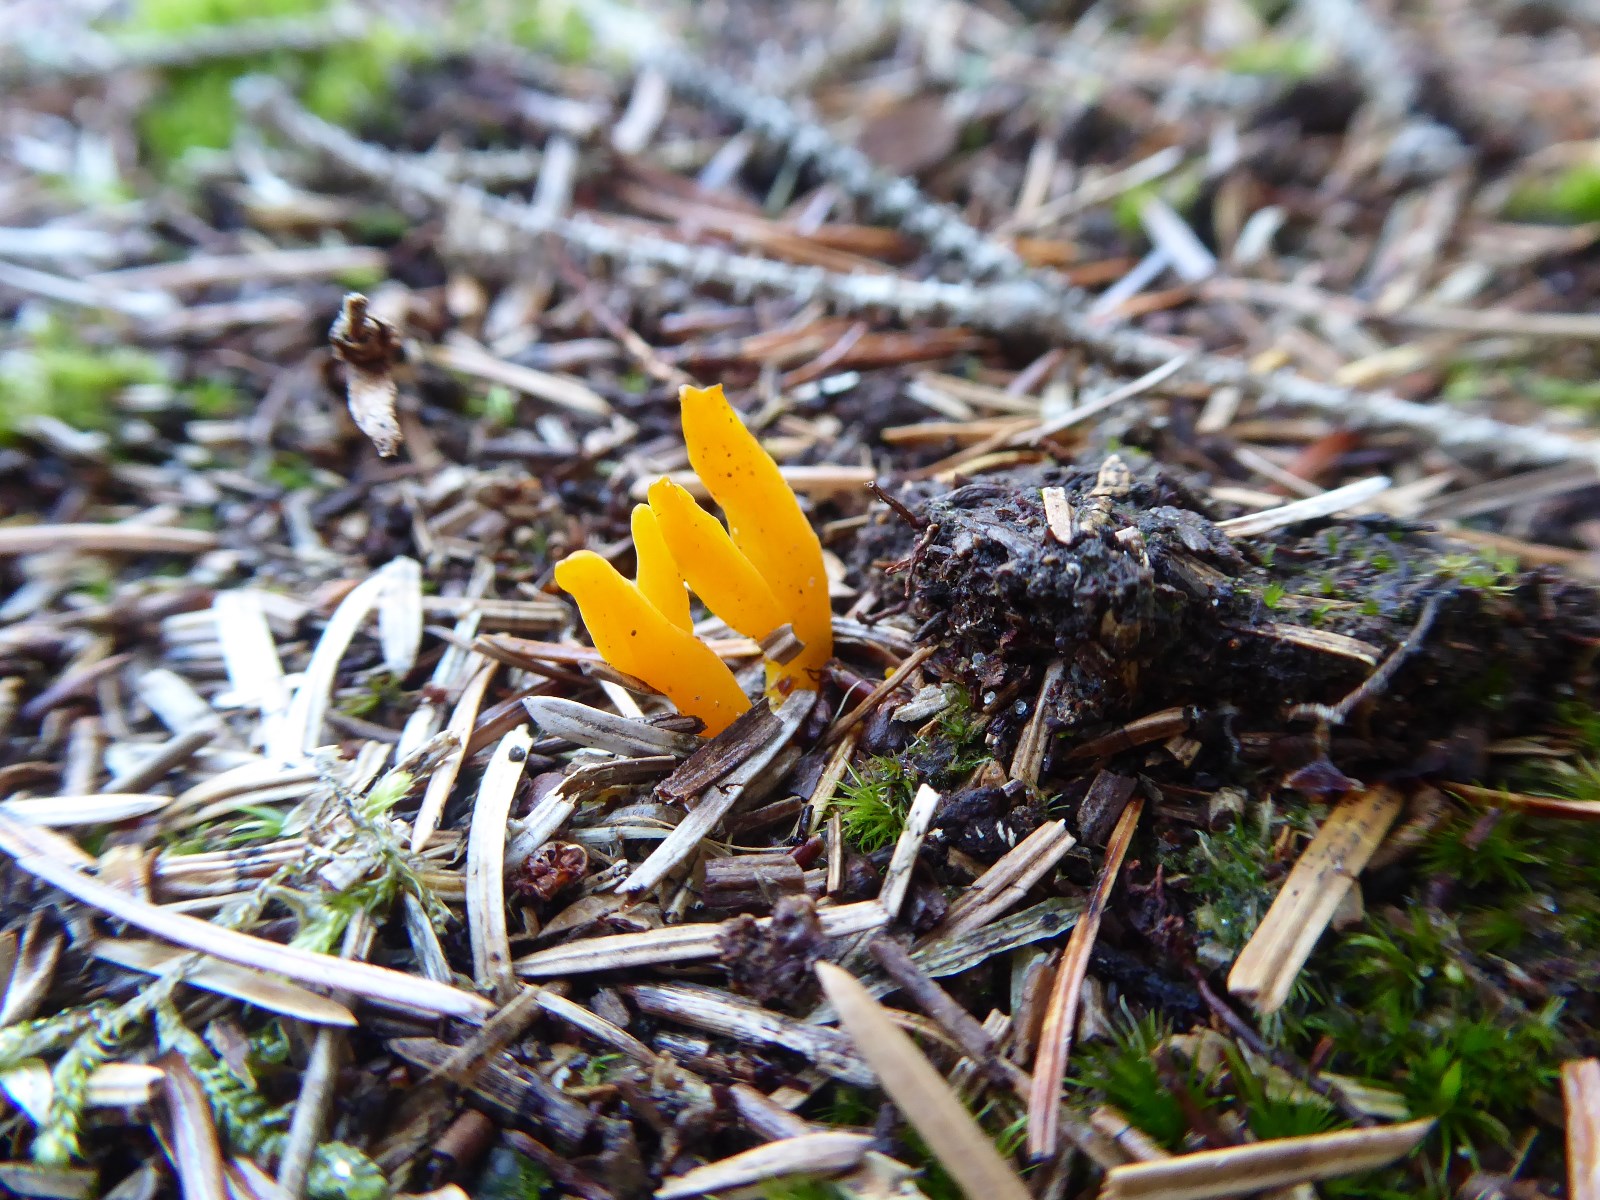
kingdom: Fungi
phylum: Basidiomycota
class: Dacrymycetes
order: Dacrymycetales
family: Dacrymycetaceae
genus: Calocera
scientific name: Calocera viscosa
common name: almindelig guldgaffel
